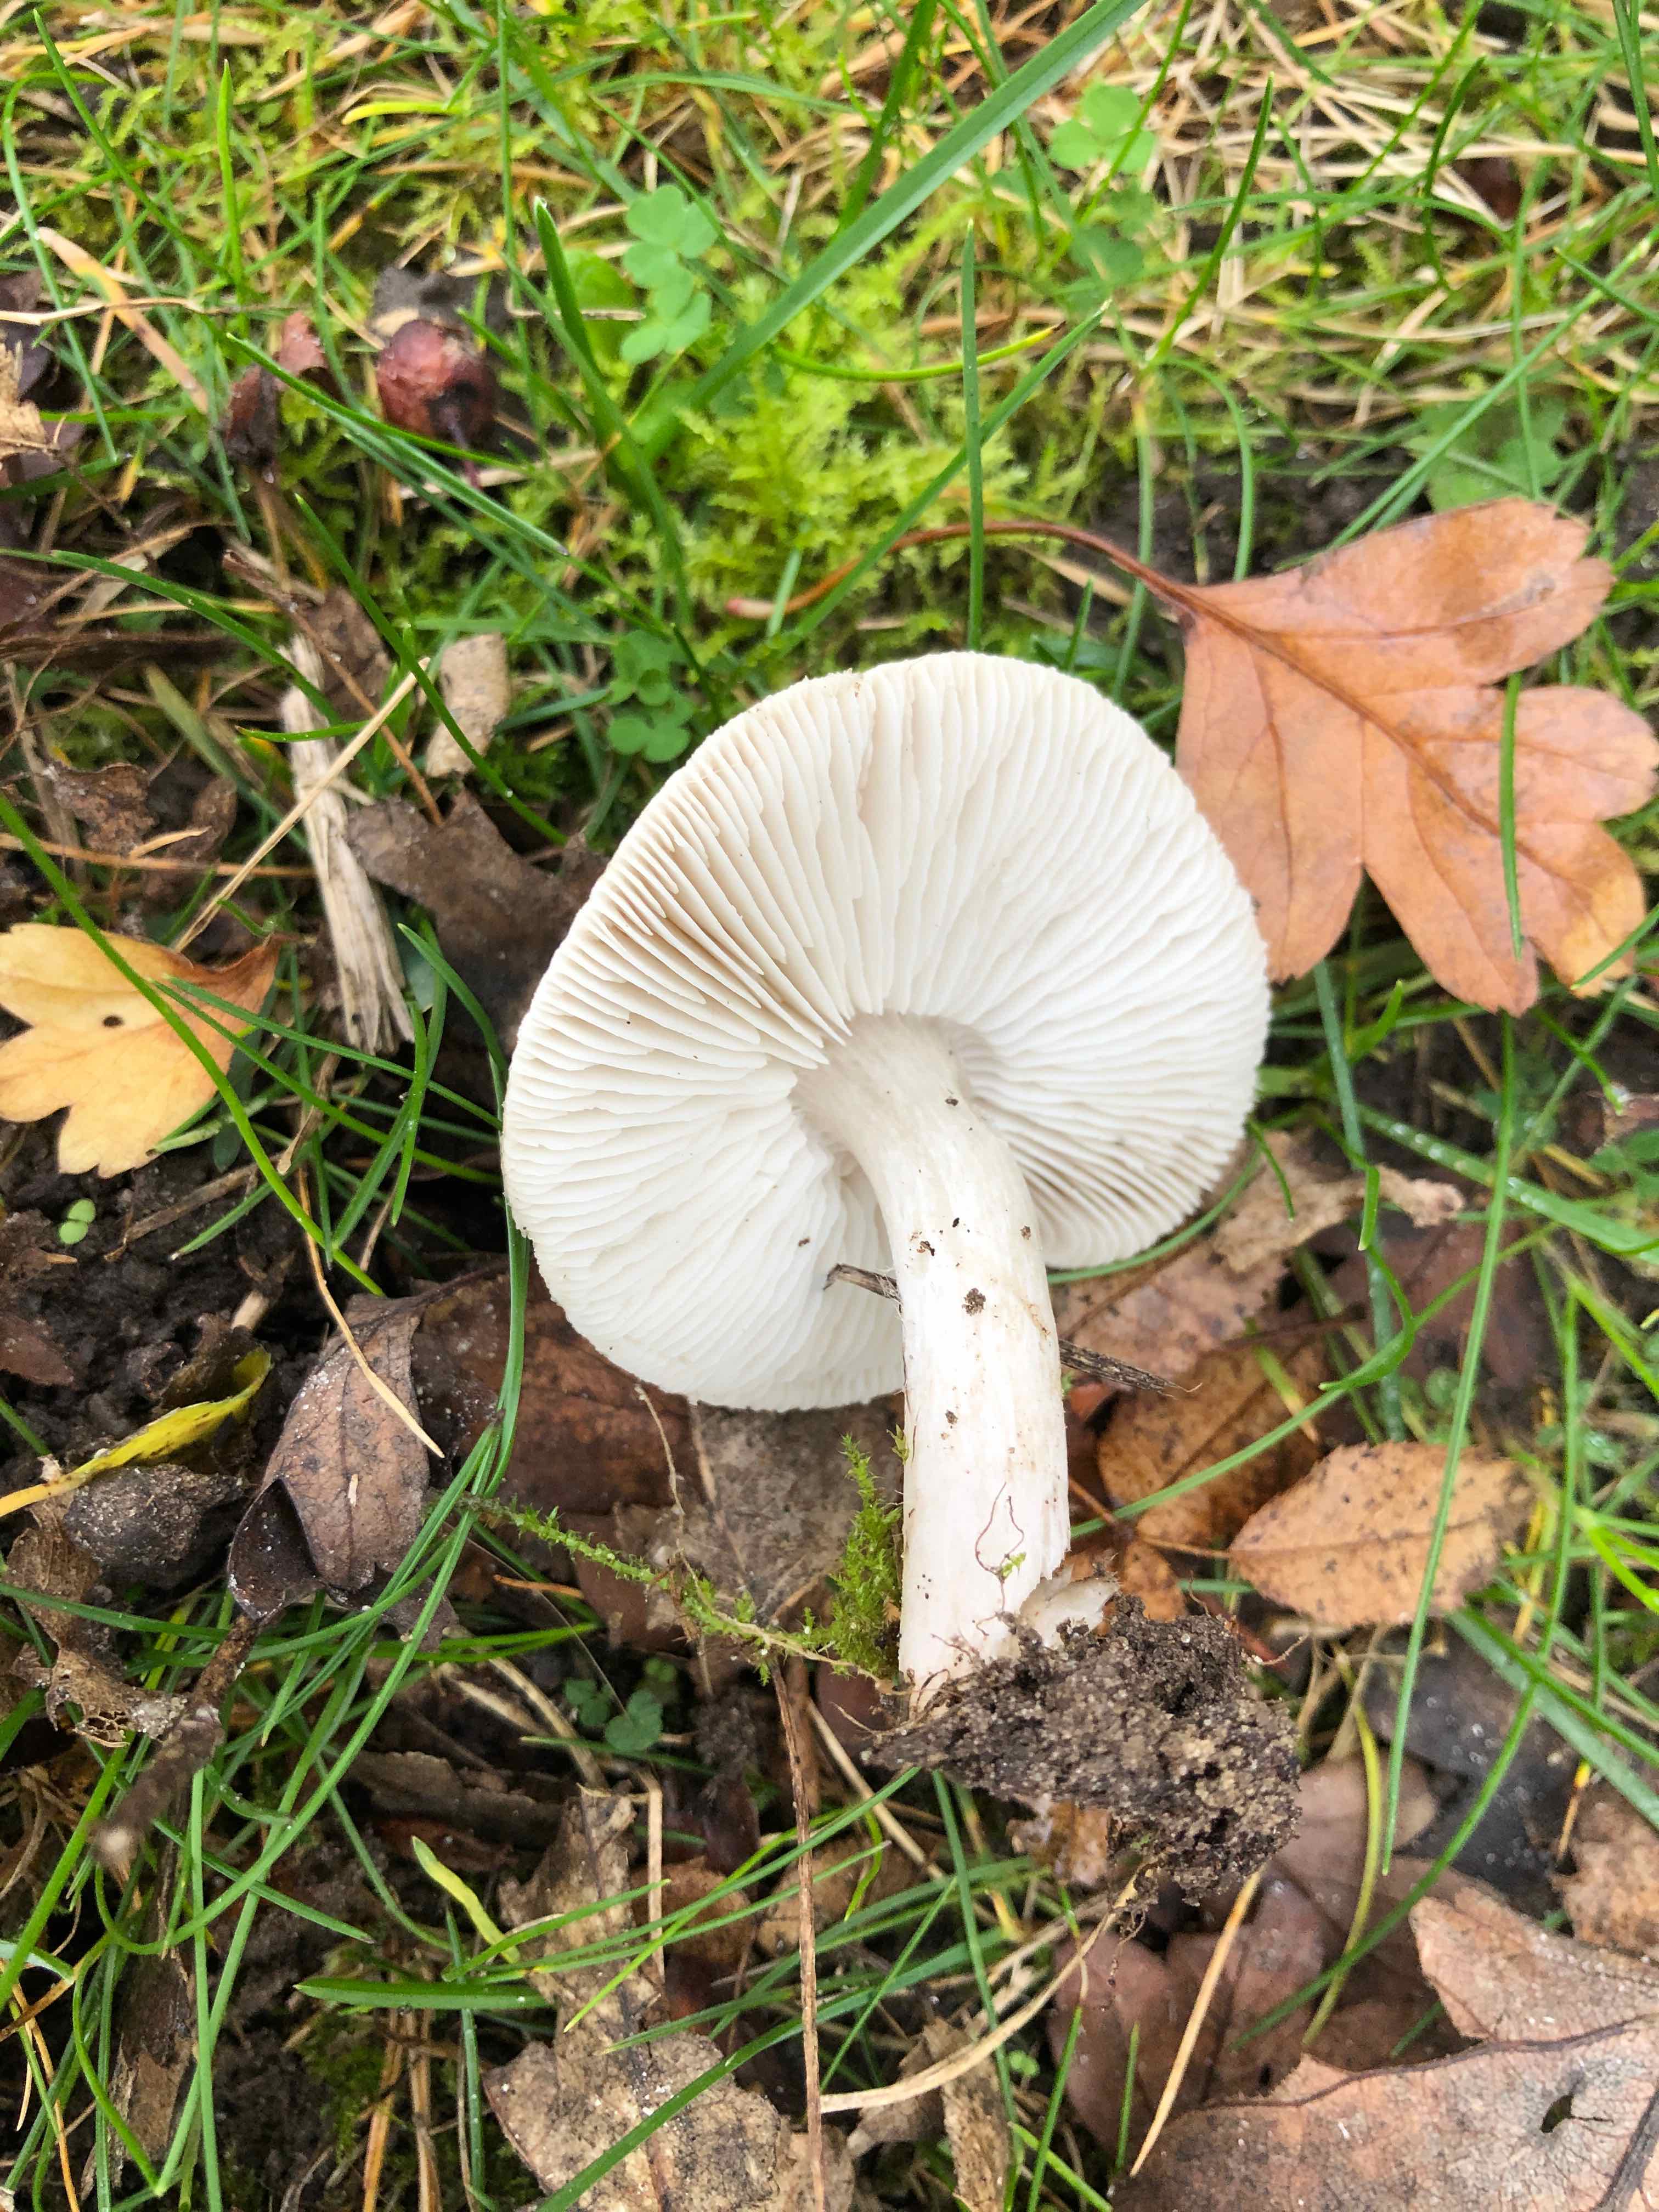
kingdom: Fungi
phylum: Basidiomycota
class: Agaricomycetes
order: Agaricales
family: Tricholomataceae
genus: Tricholoma
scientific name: Tricholoma
